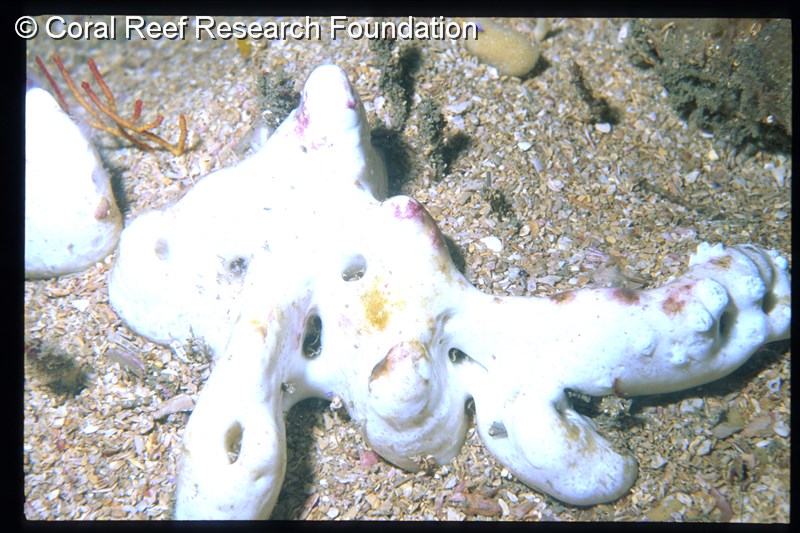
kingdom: Animalia
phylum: Chordata
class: Ascidiacea
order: Aplousobranchia
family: Holozoidae
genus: Distaplia
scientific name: Distaplia skoogi
